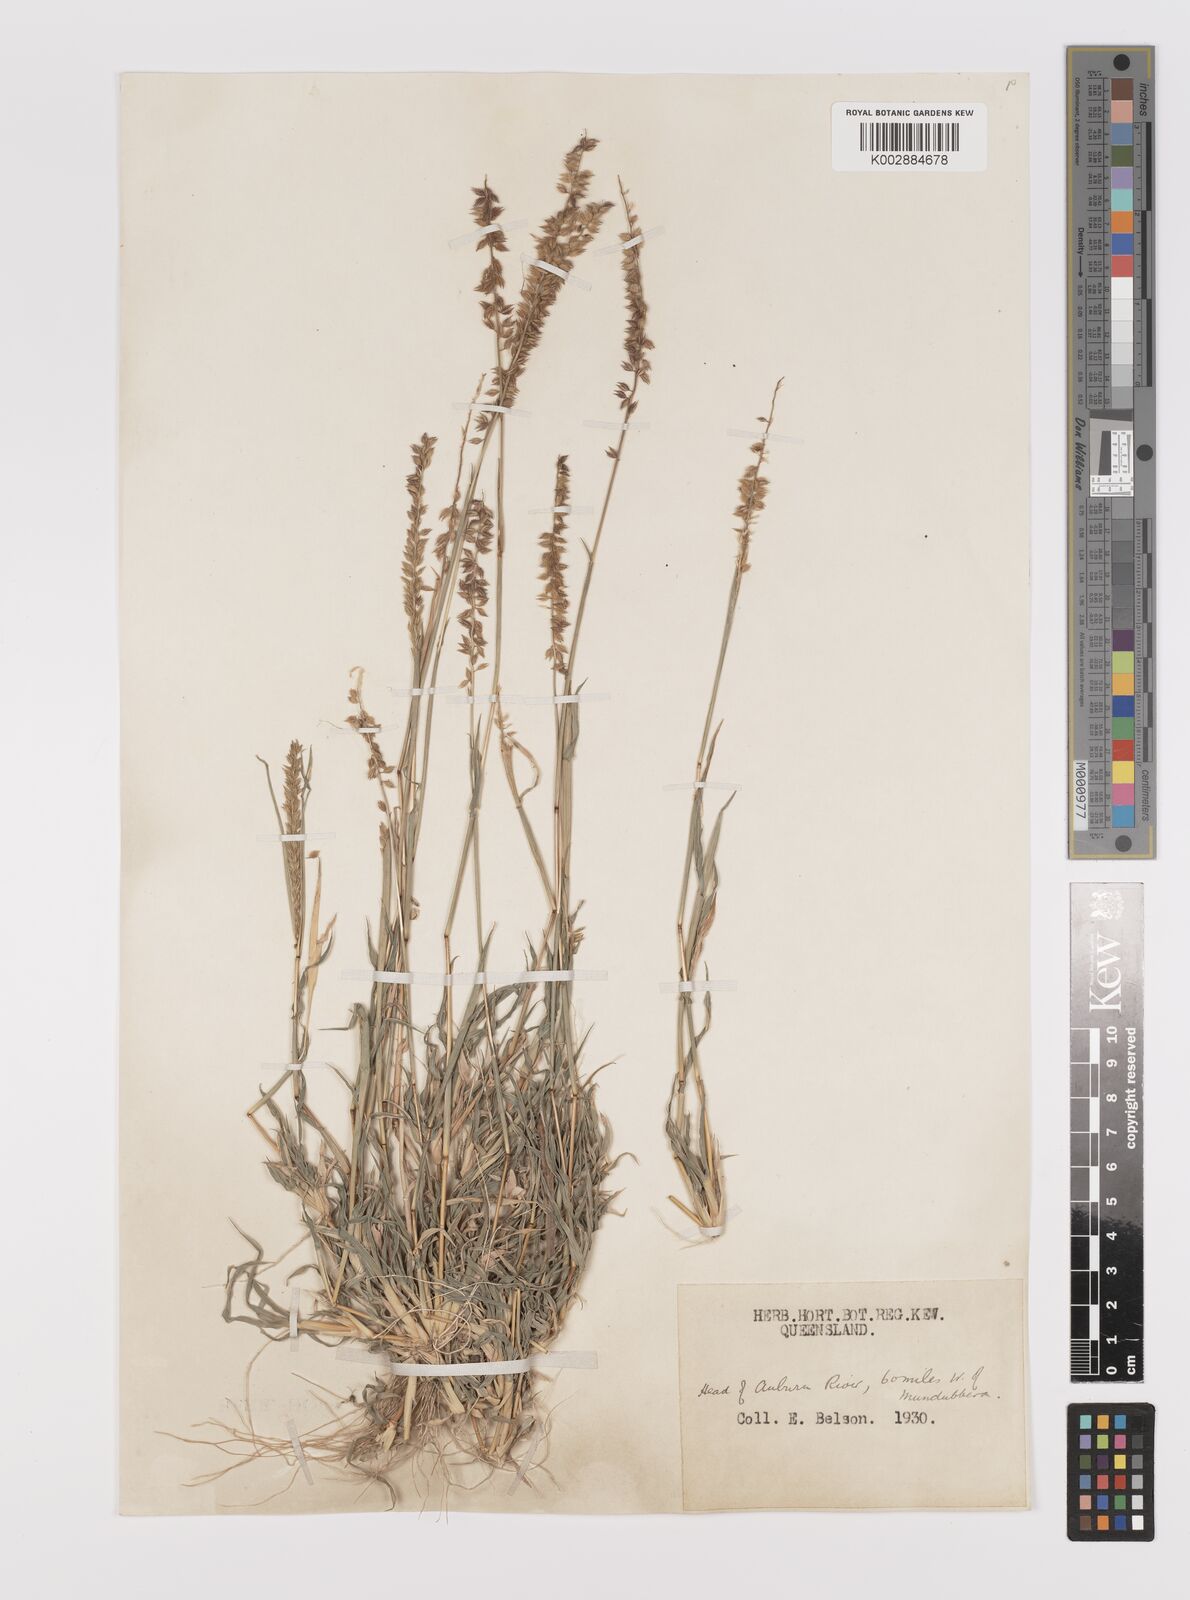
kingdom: Plantae
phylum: Tracheophyta
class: Liliopsida
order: Poales
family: Poaceae
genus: Tragus
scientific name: Tragus australianus
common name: Australian bur-grass
